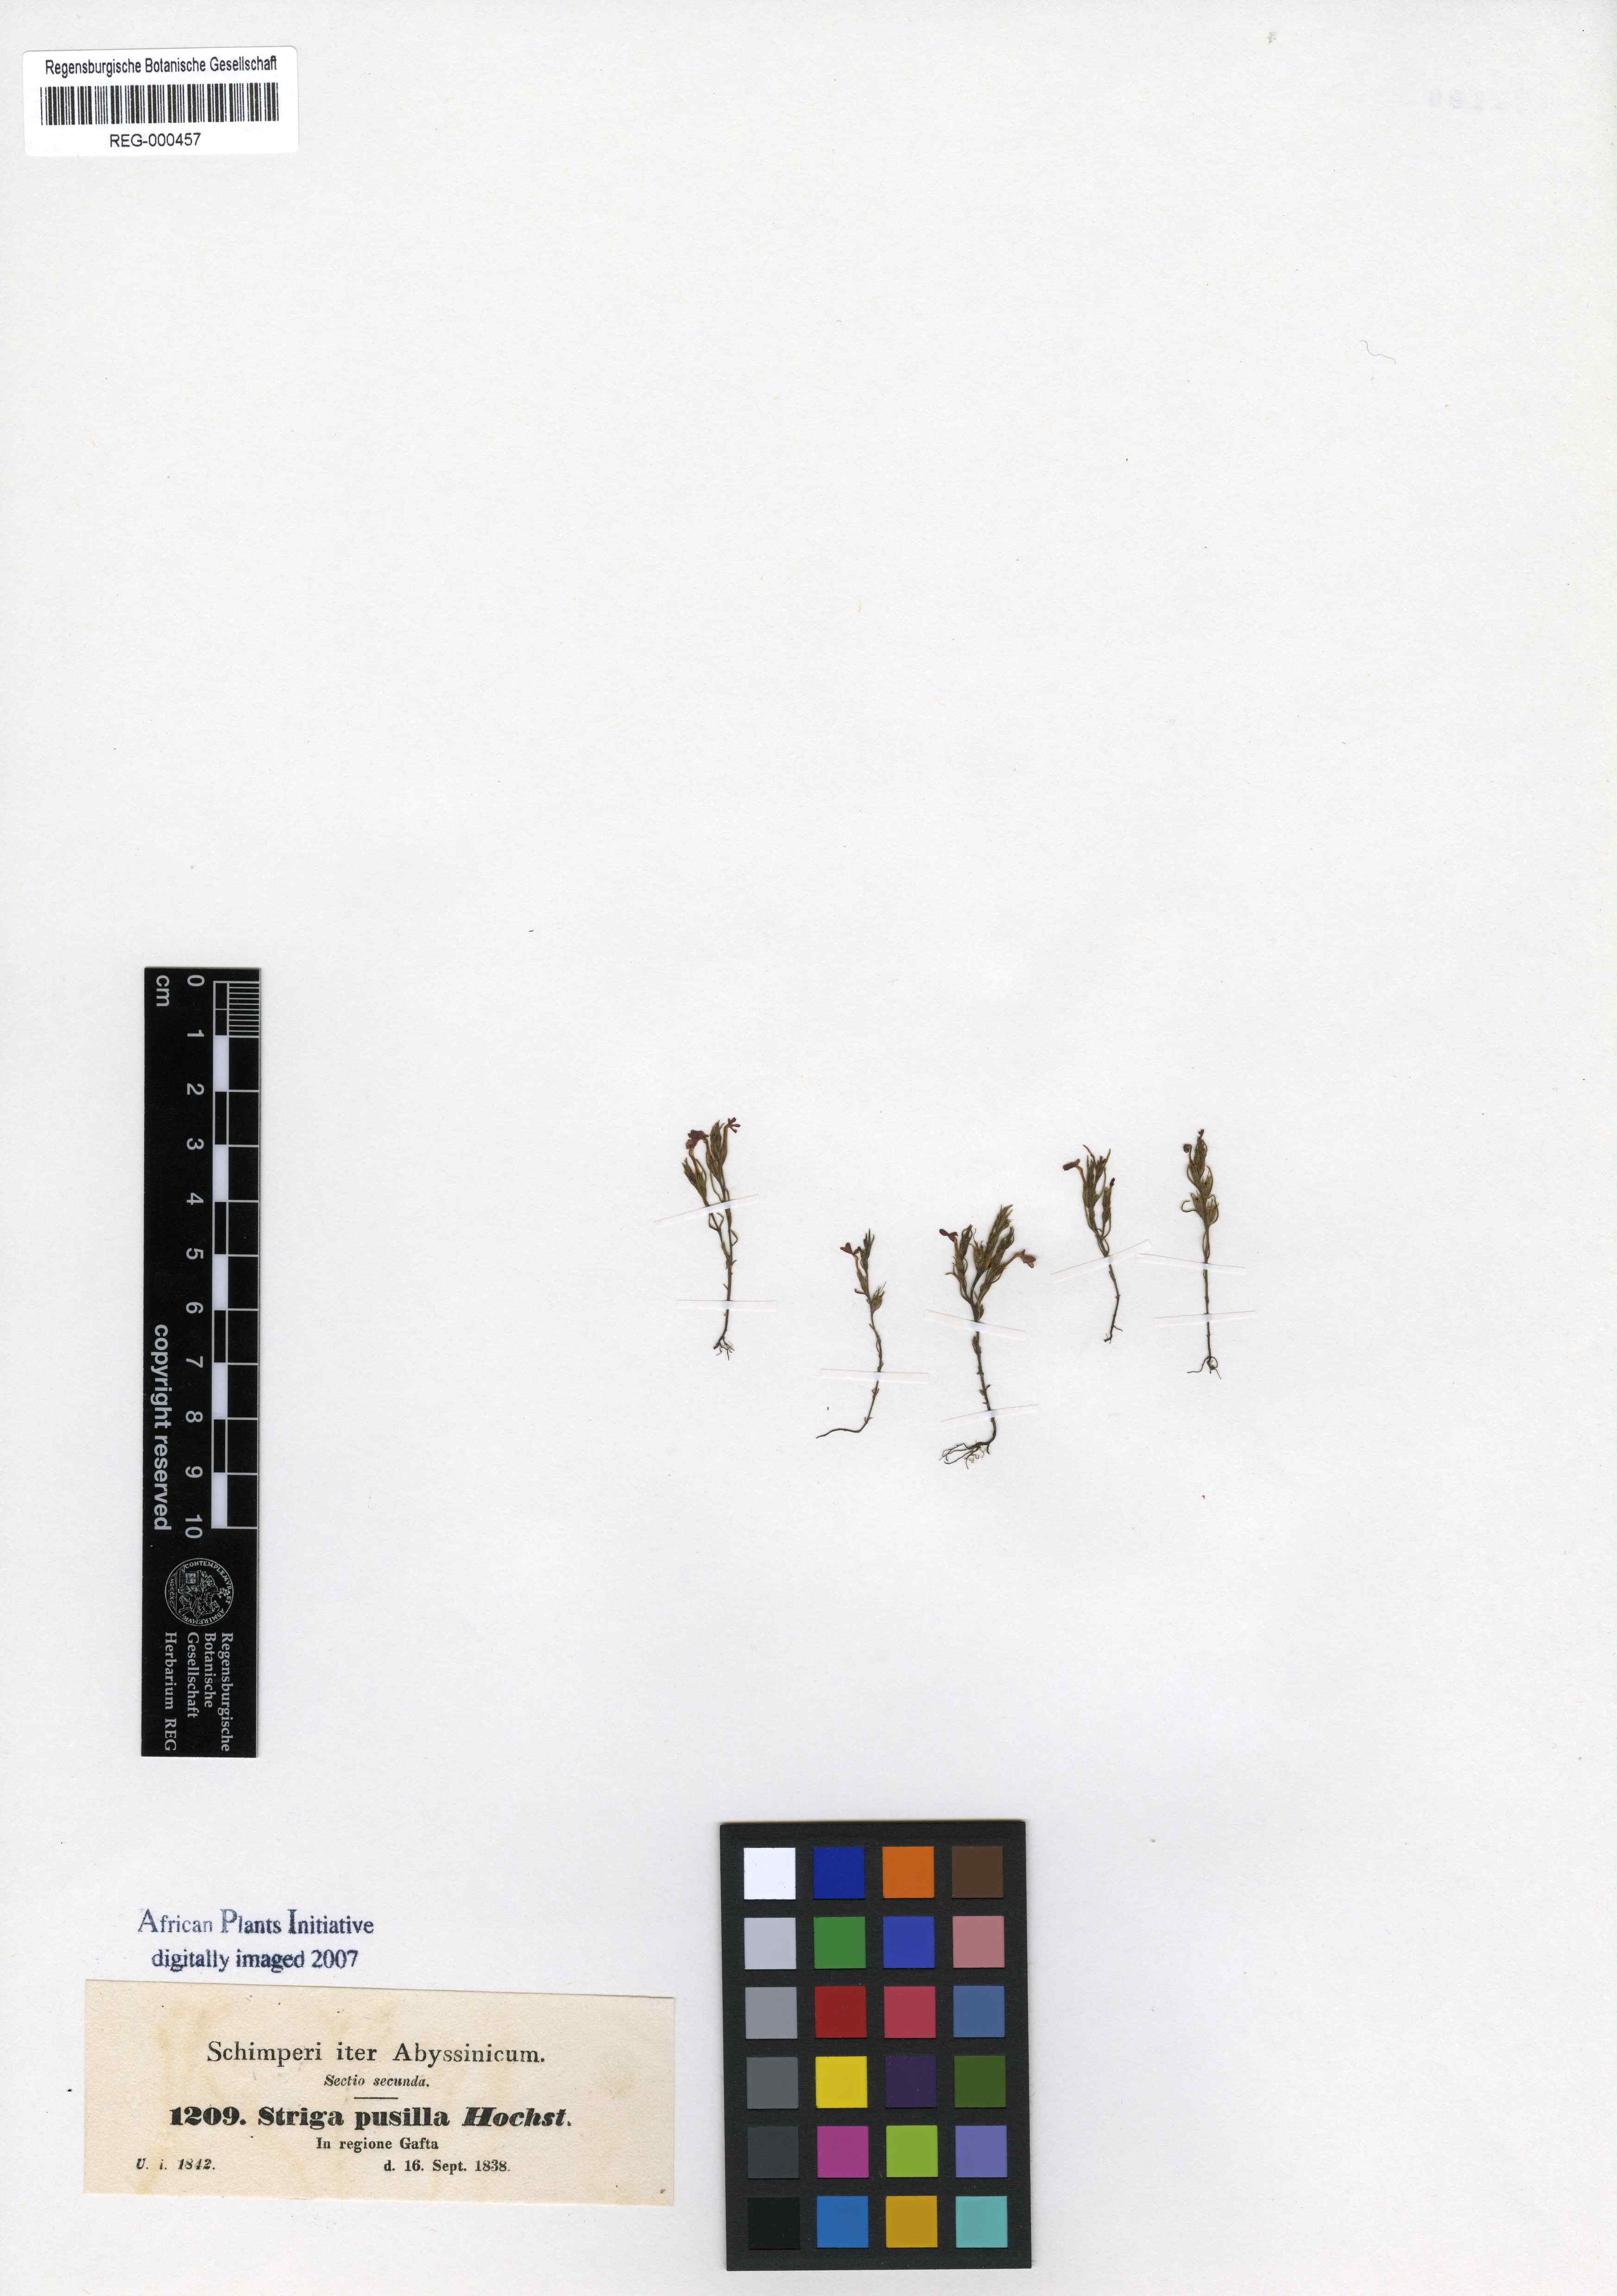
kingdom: Plantae
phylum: Tracheophyta
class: Magnoliopsida
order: Lamiales
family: Orobanchaceae
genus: Striga
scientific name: Striga asiatica
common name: Asiatic witchweed
